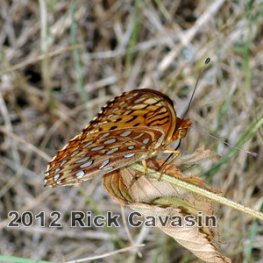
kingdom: Animalia
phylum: Arthropoda
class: Insecta
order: Lepidoptera
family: Nymphalidae
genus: Speyeria
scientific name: Speyeria aphrodite
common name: Aphrodite Fritillary
